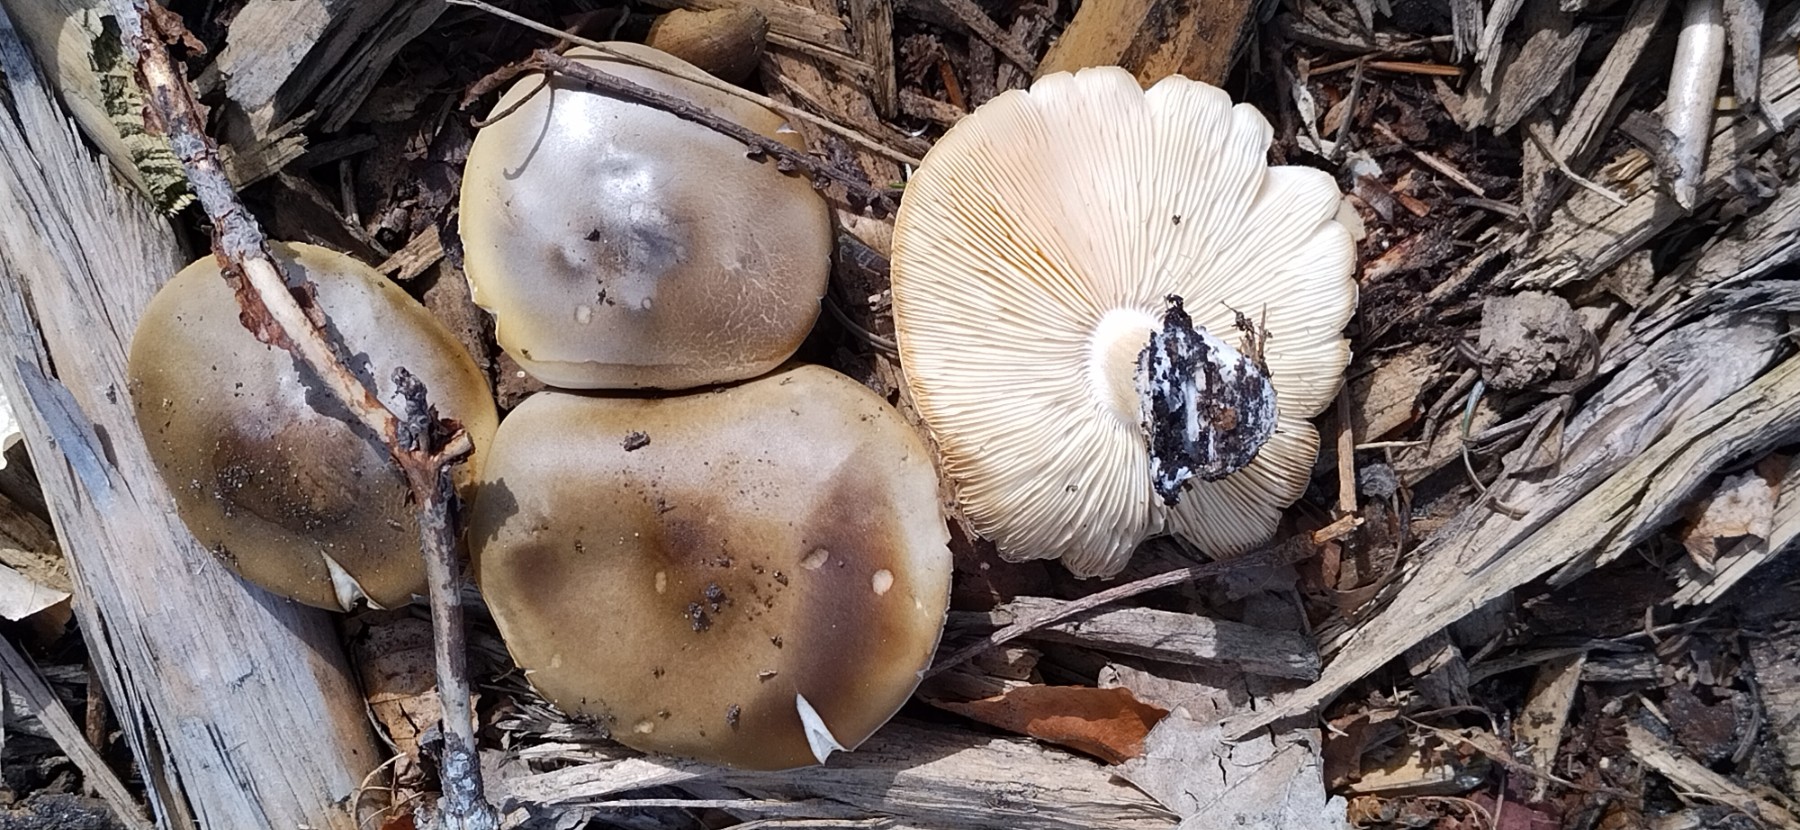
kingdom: Fungi
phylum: Basidiomycota
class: Agaricomycetes
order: Agaricales
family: Tricholomataceae
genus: Melanoleuca
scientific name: Melanoleuca cognata
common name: gyldengrå munkehat
